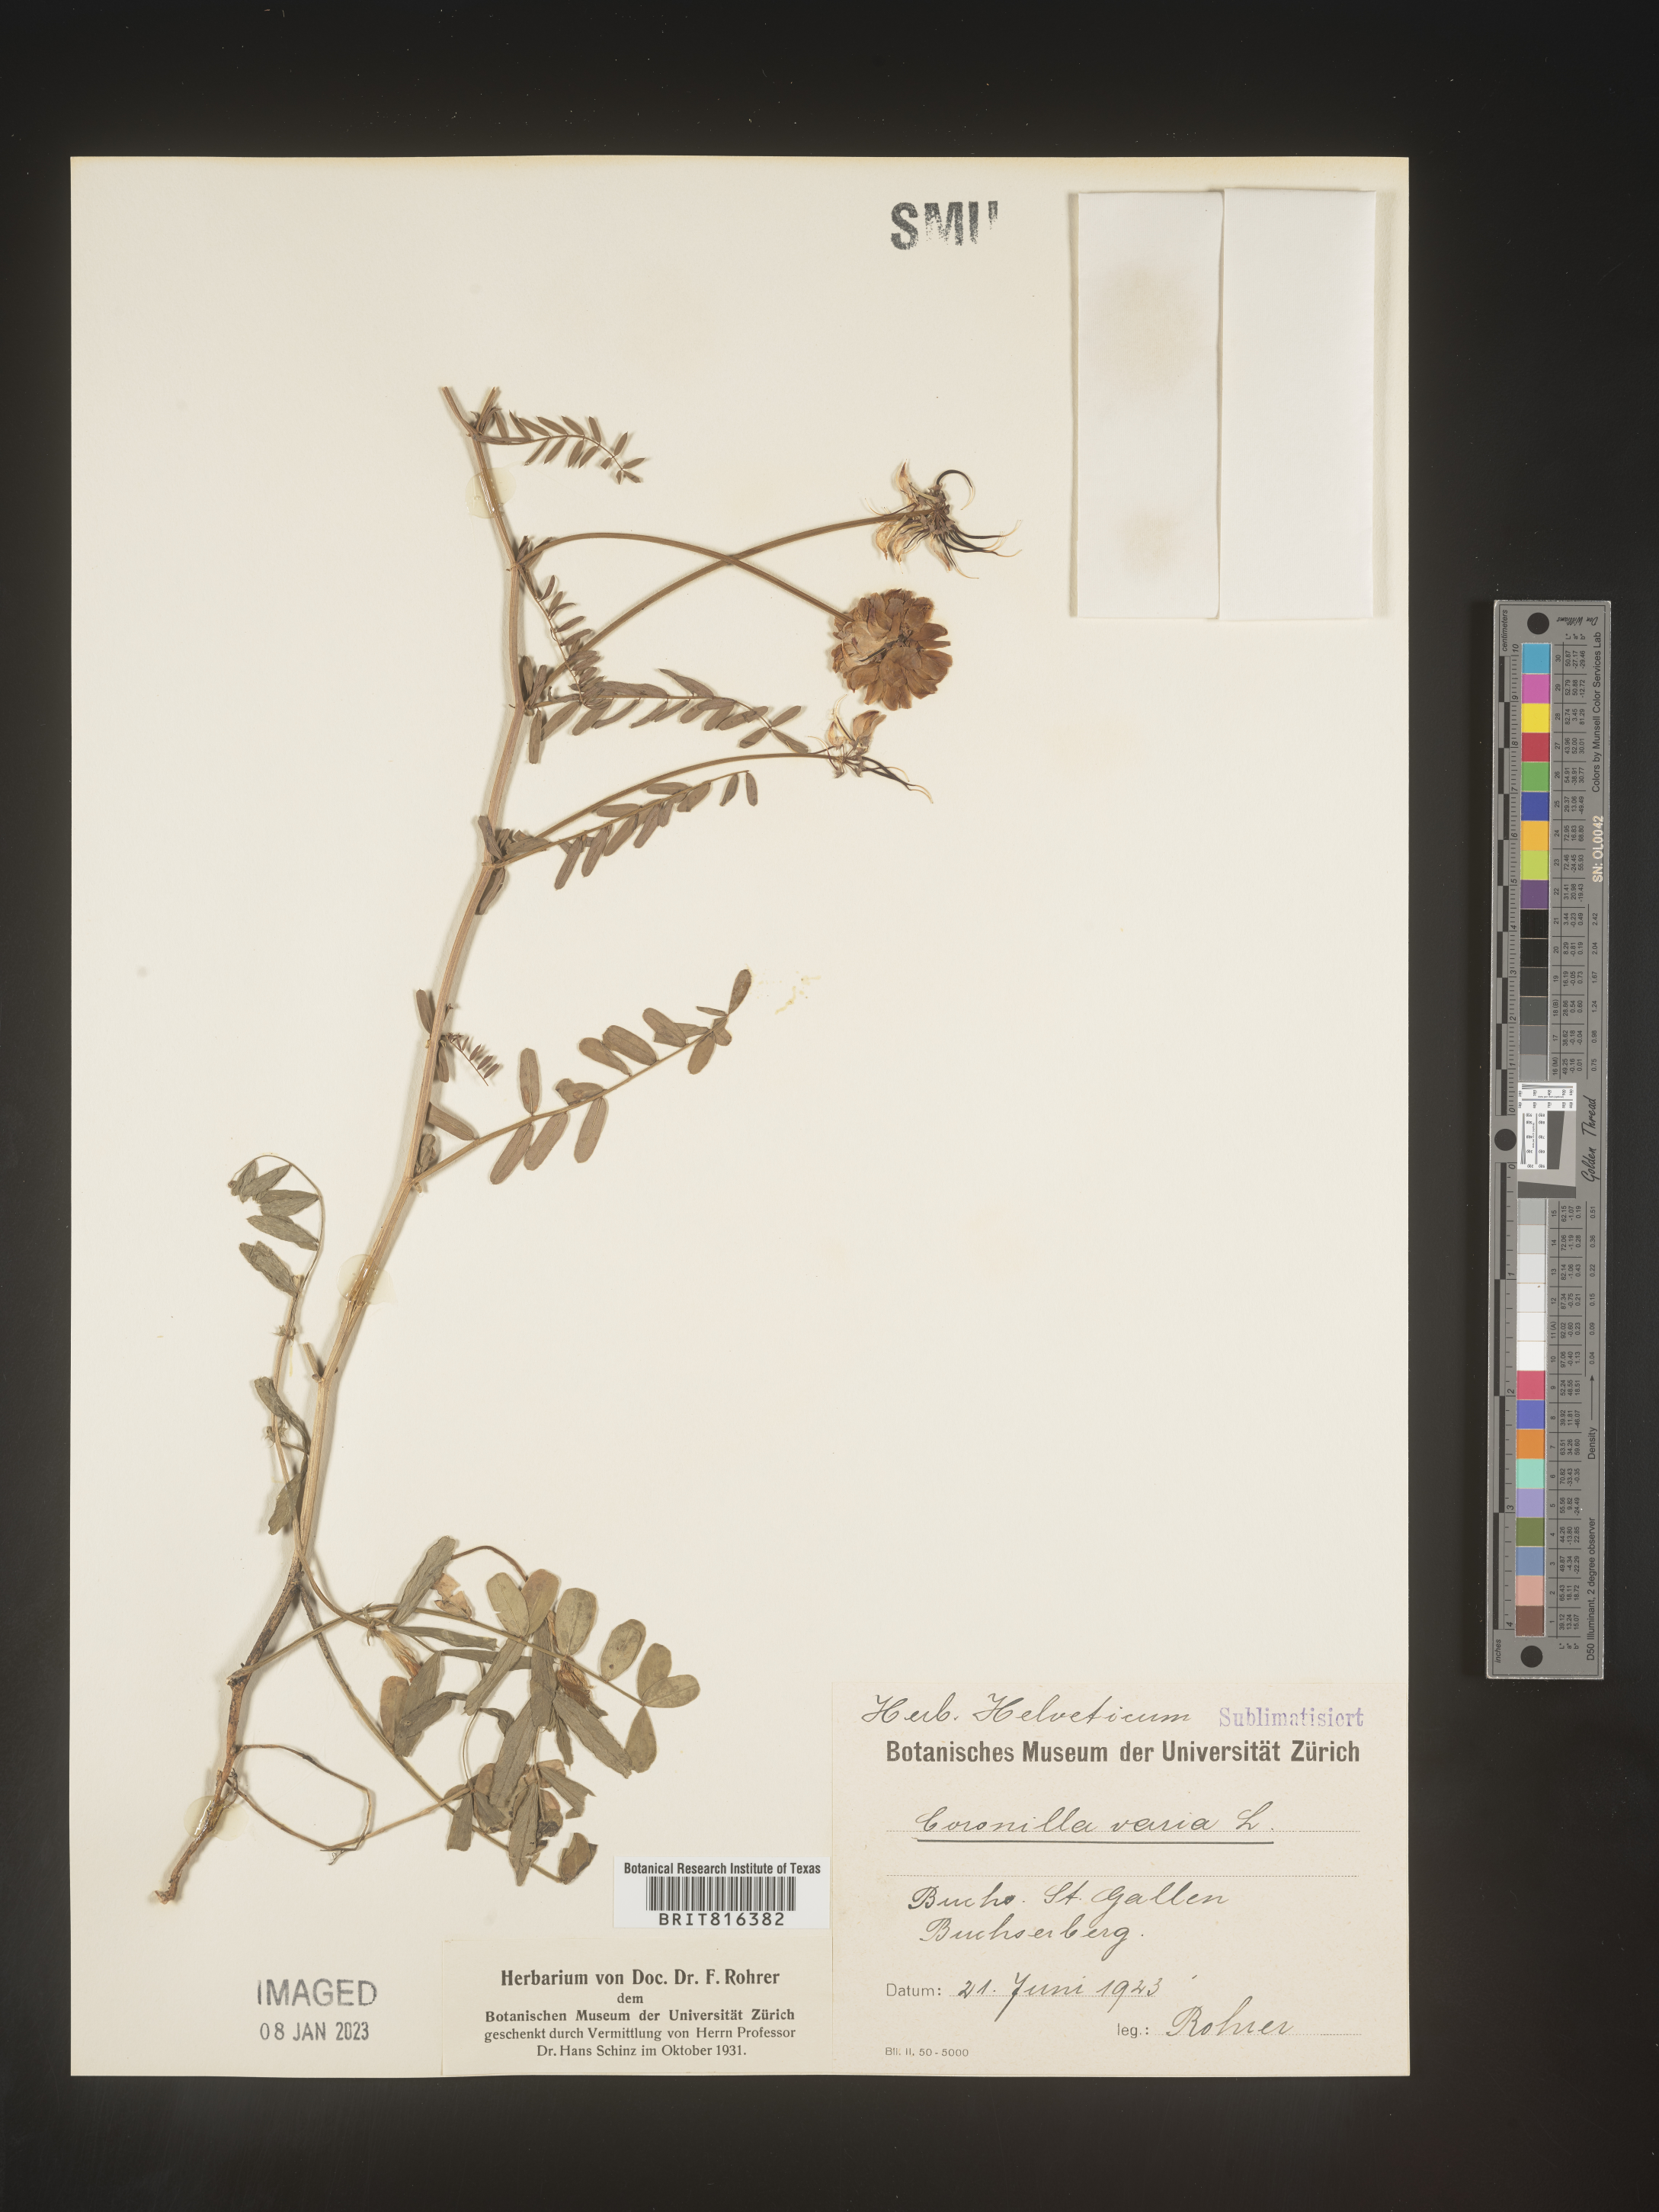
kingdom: Plantae
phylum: Tracheophyta
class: Magnoliopsida
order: Fabales
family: Fabaceae
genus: Coronilla
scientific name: Coronilla
